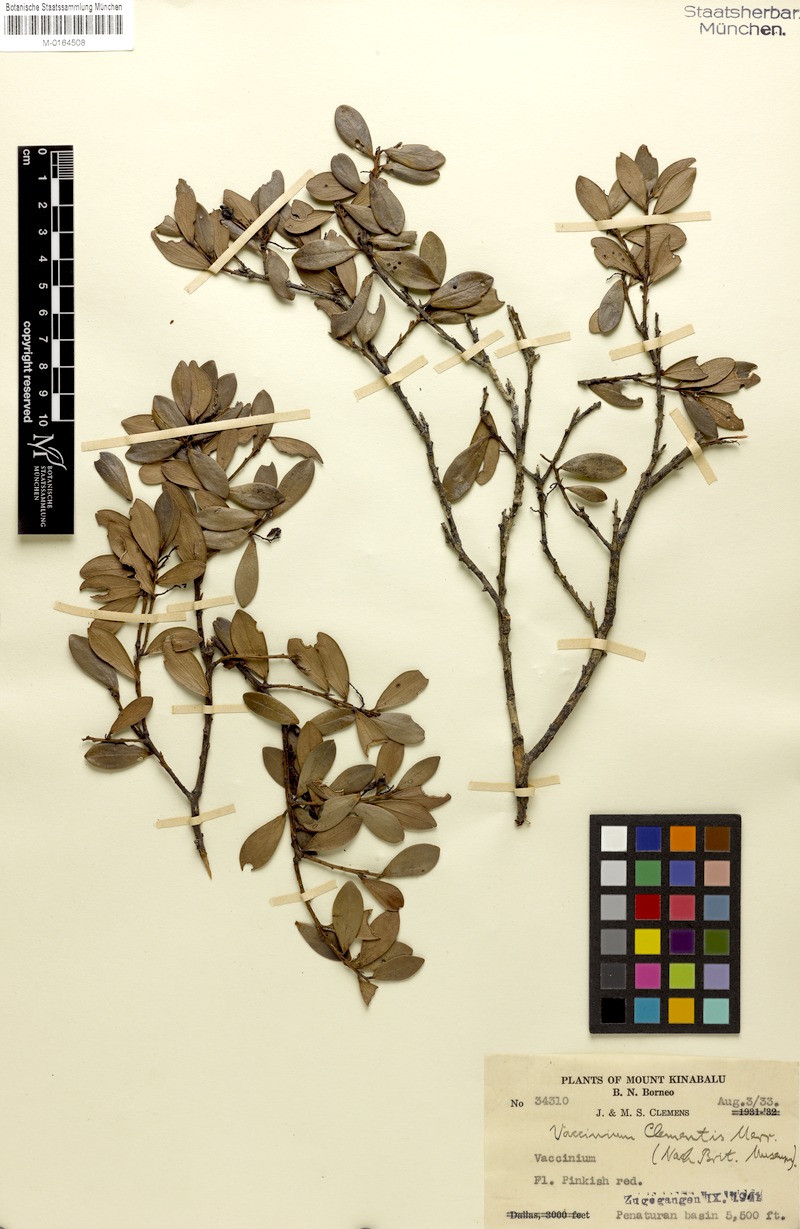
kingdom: Plantae
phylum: Tracheophyta
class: Magnoliopsida
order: Ericales
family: Ericaceae
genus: Vaccinium
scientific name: Vaccinium clementis
